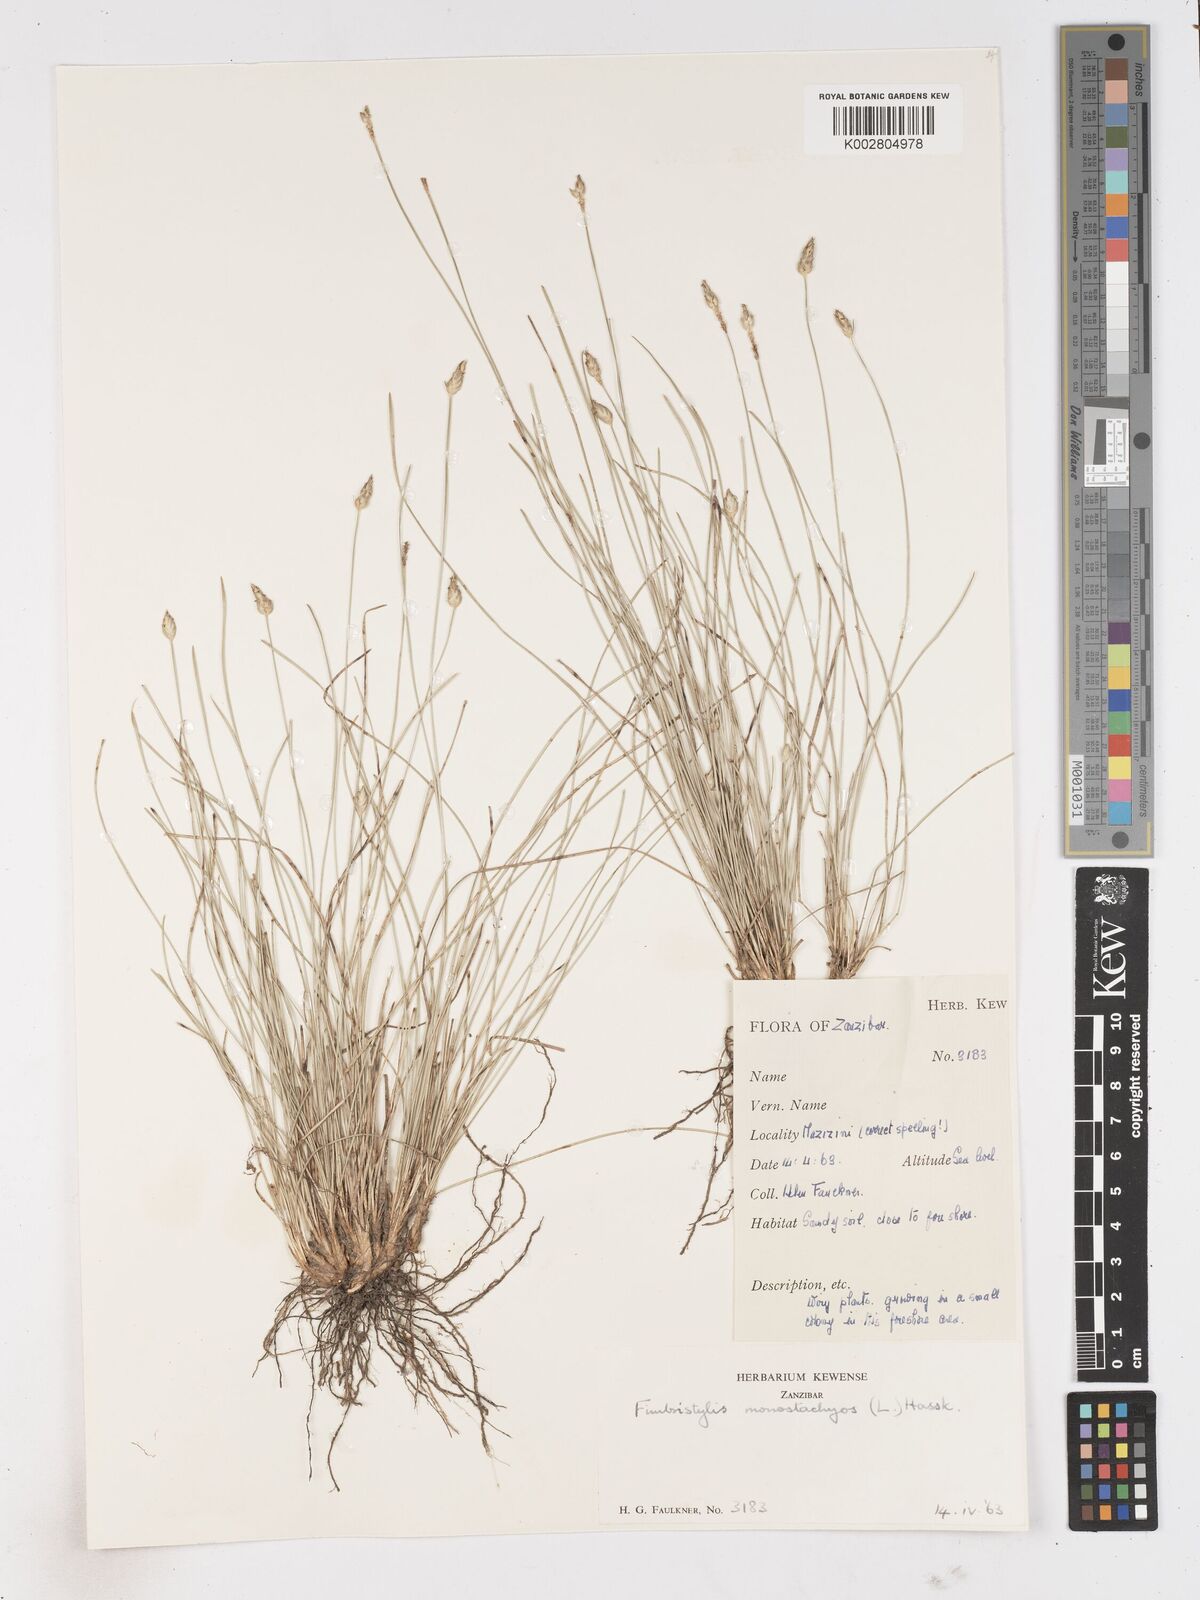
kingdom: Plantae
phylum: Tracheophyta
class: Liliopsida
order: Poales
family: Cyperaceae
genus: Abildgaardia
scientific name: Abildgaardia ovata
